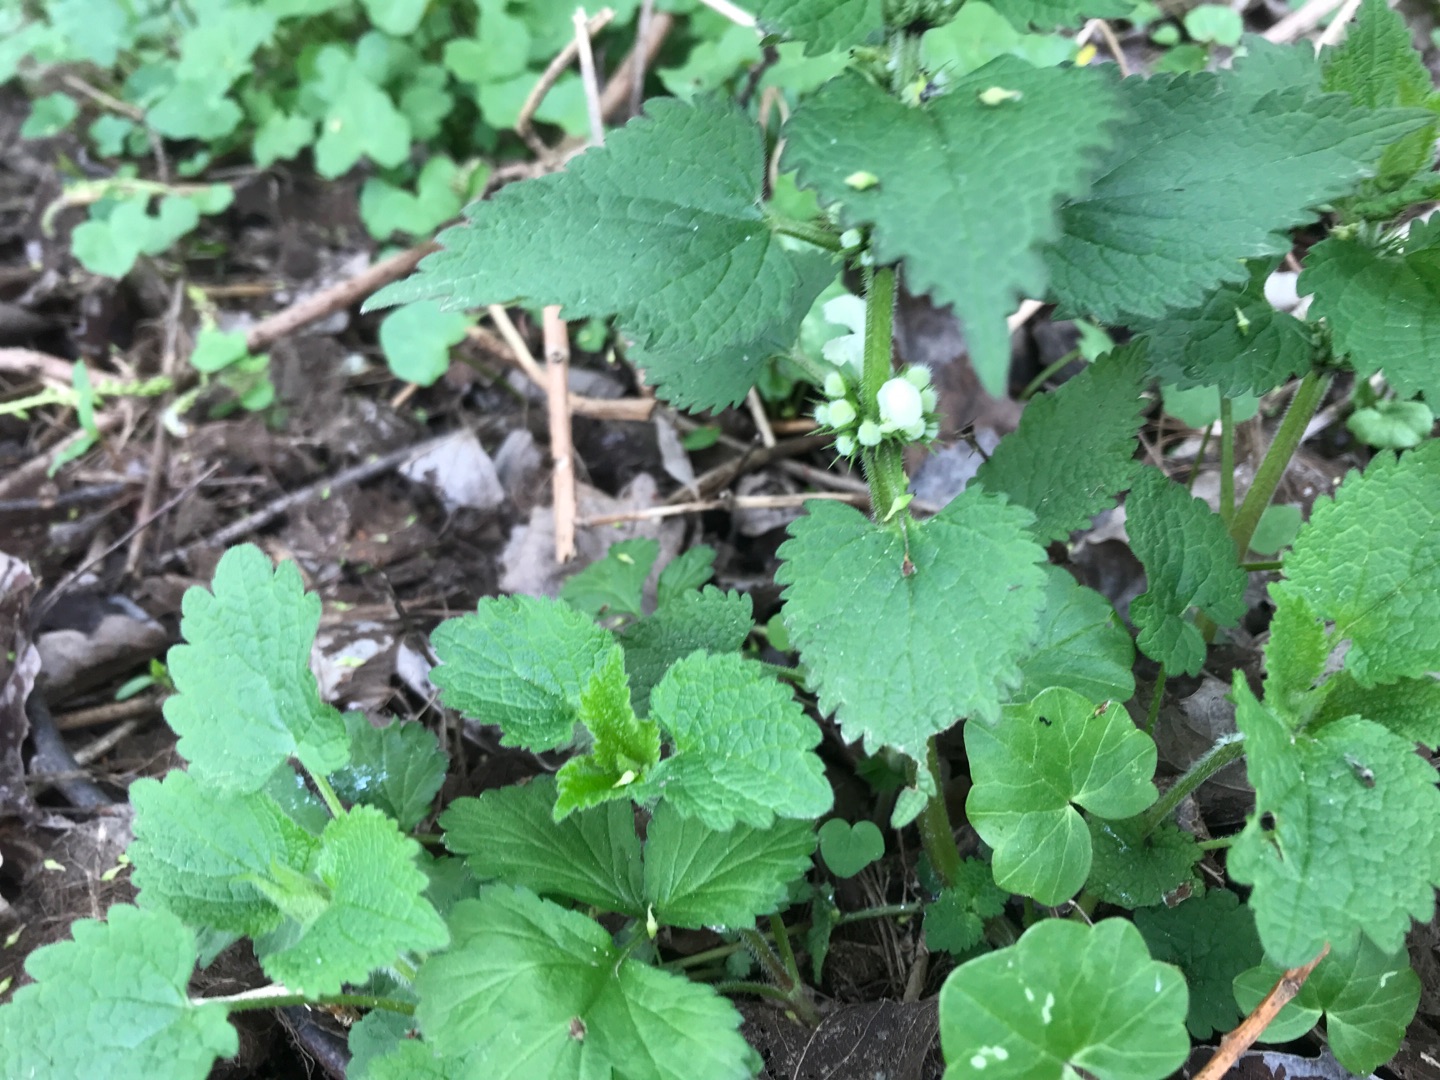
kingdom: Plantae
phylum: Tracheophyta
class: Magnoliopsida
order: Lamiales
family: Lamiaceae
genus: Lamium
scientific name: Lamium album
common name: Døvnælde
